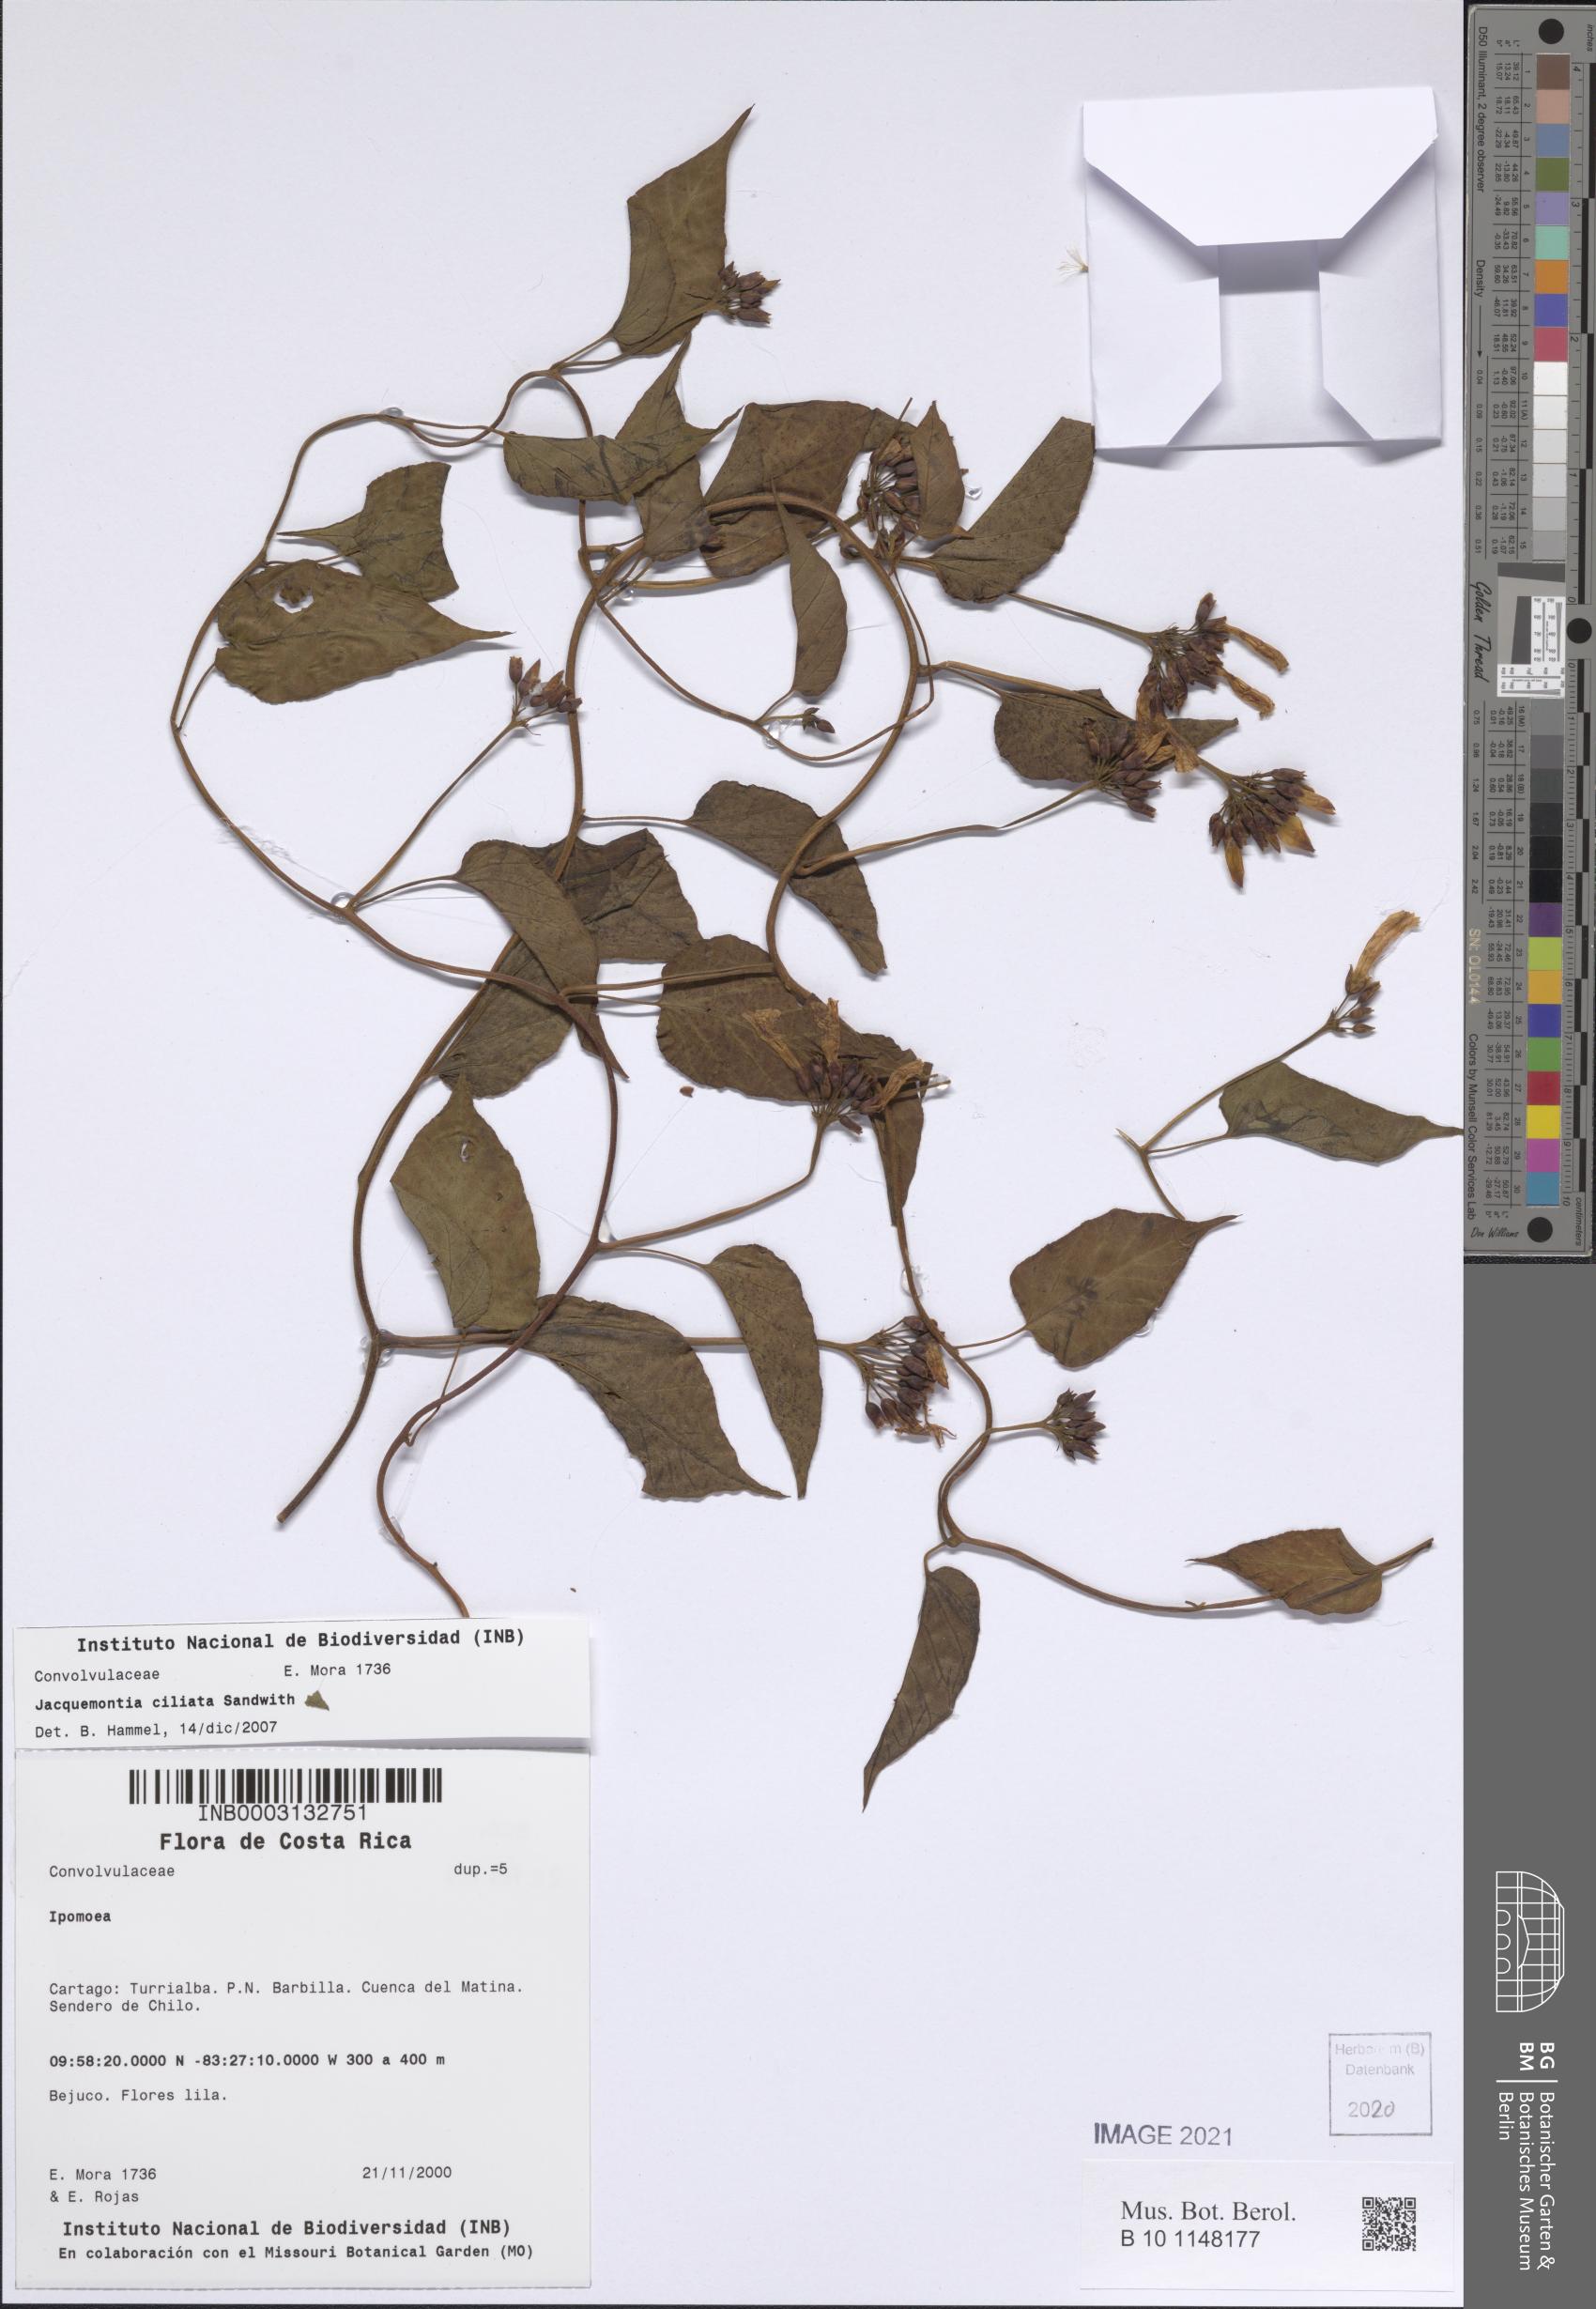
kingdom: Plantae
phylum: Tracheophyta
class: Magnoliopsida
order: Solanales
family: Convolvulaceae
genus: Jacquemontia
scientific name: Jacquemontia gabrielii
